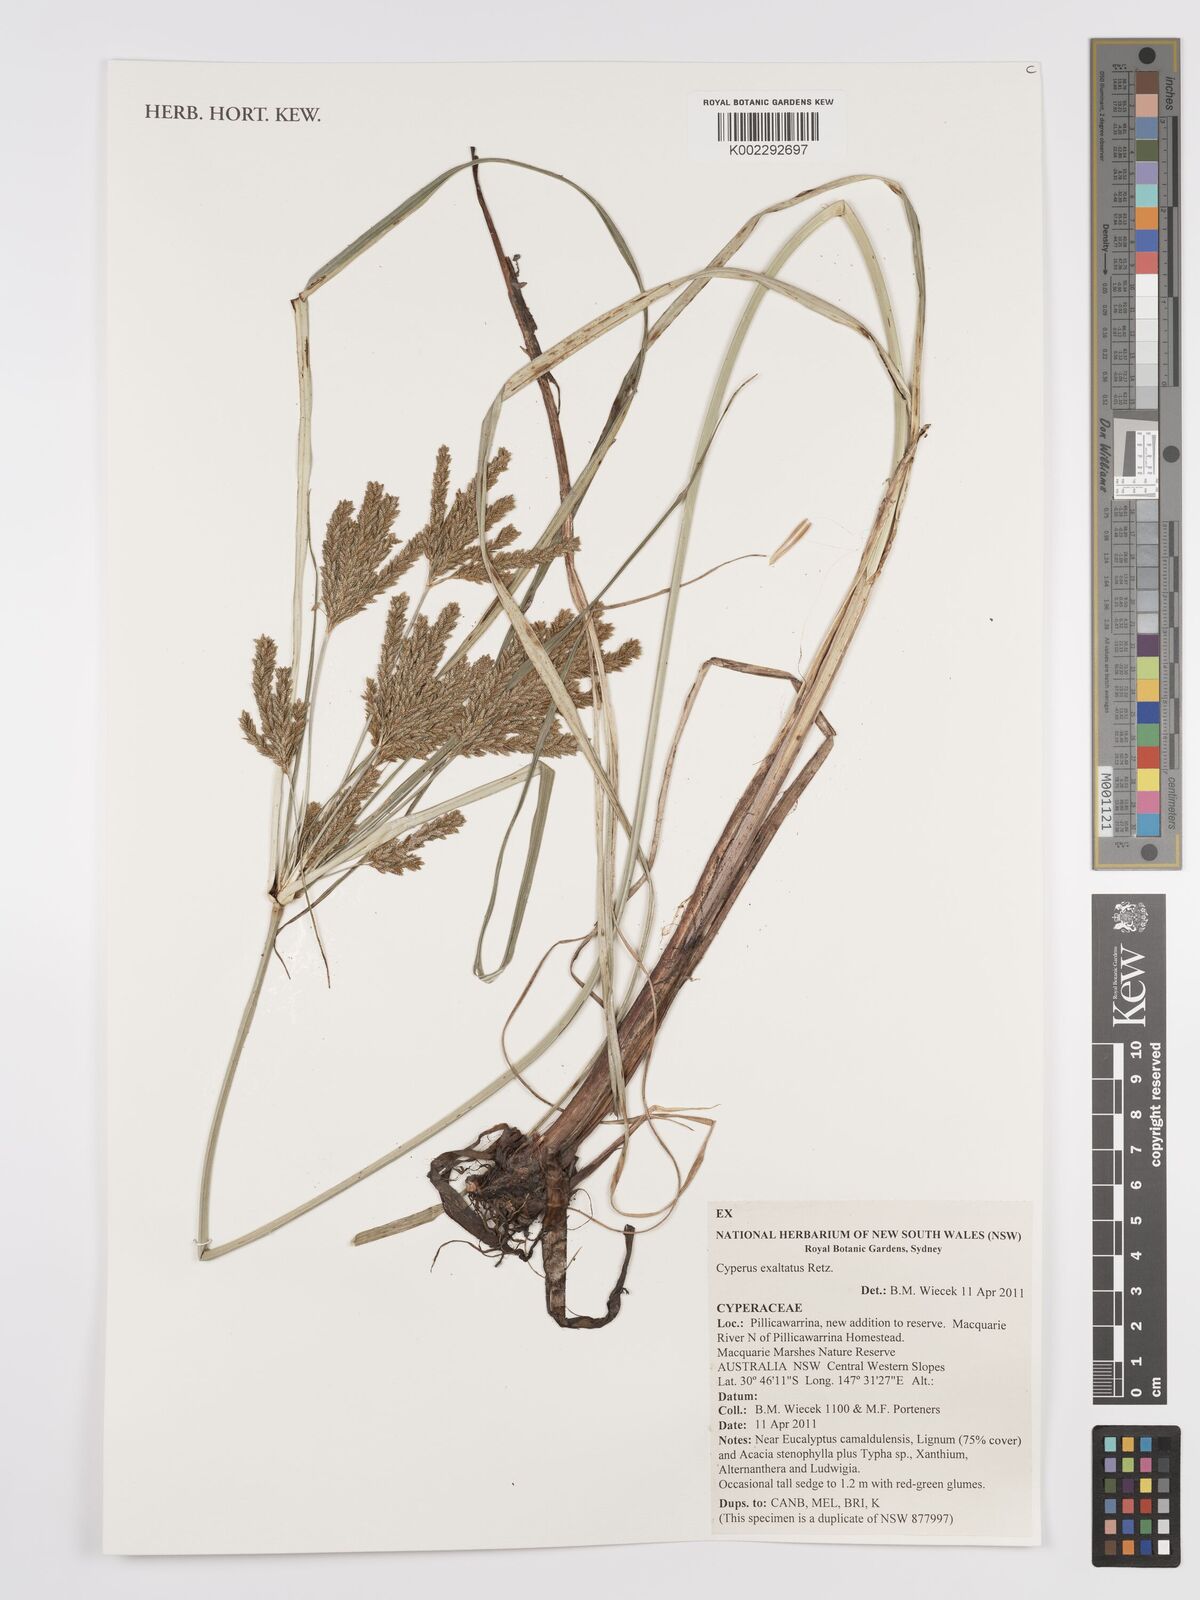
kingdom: Plantae
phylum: Tracheophyta
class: Liliopsida
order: Poales
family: Cyperaceae
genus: Cyperus
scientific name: Cyperus exaltatus
